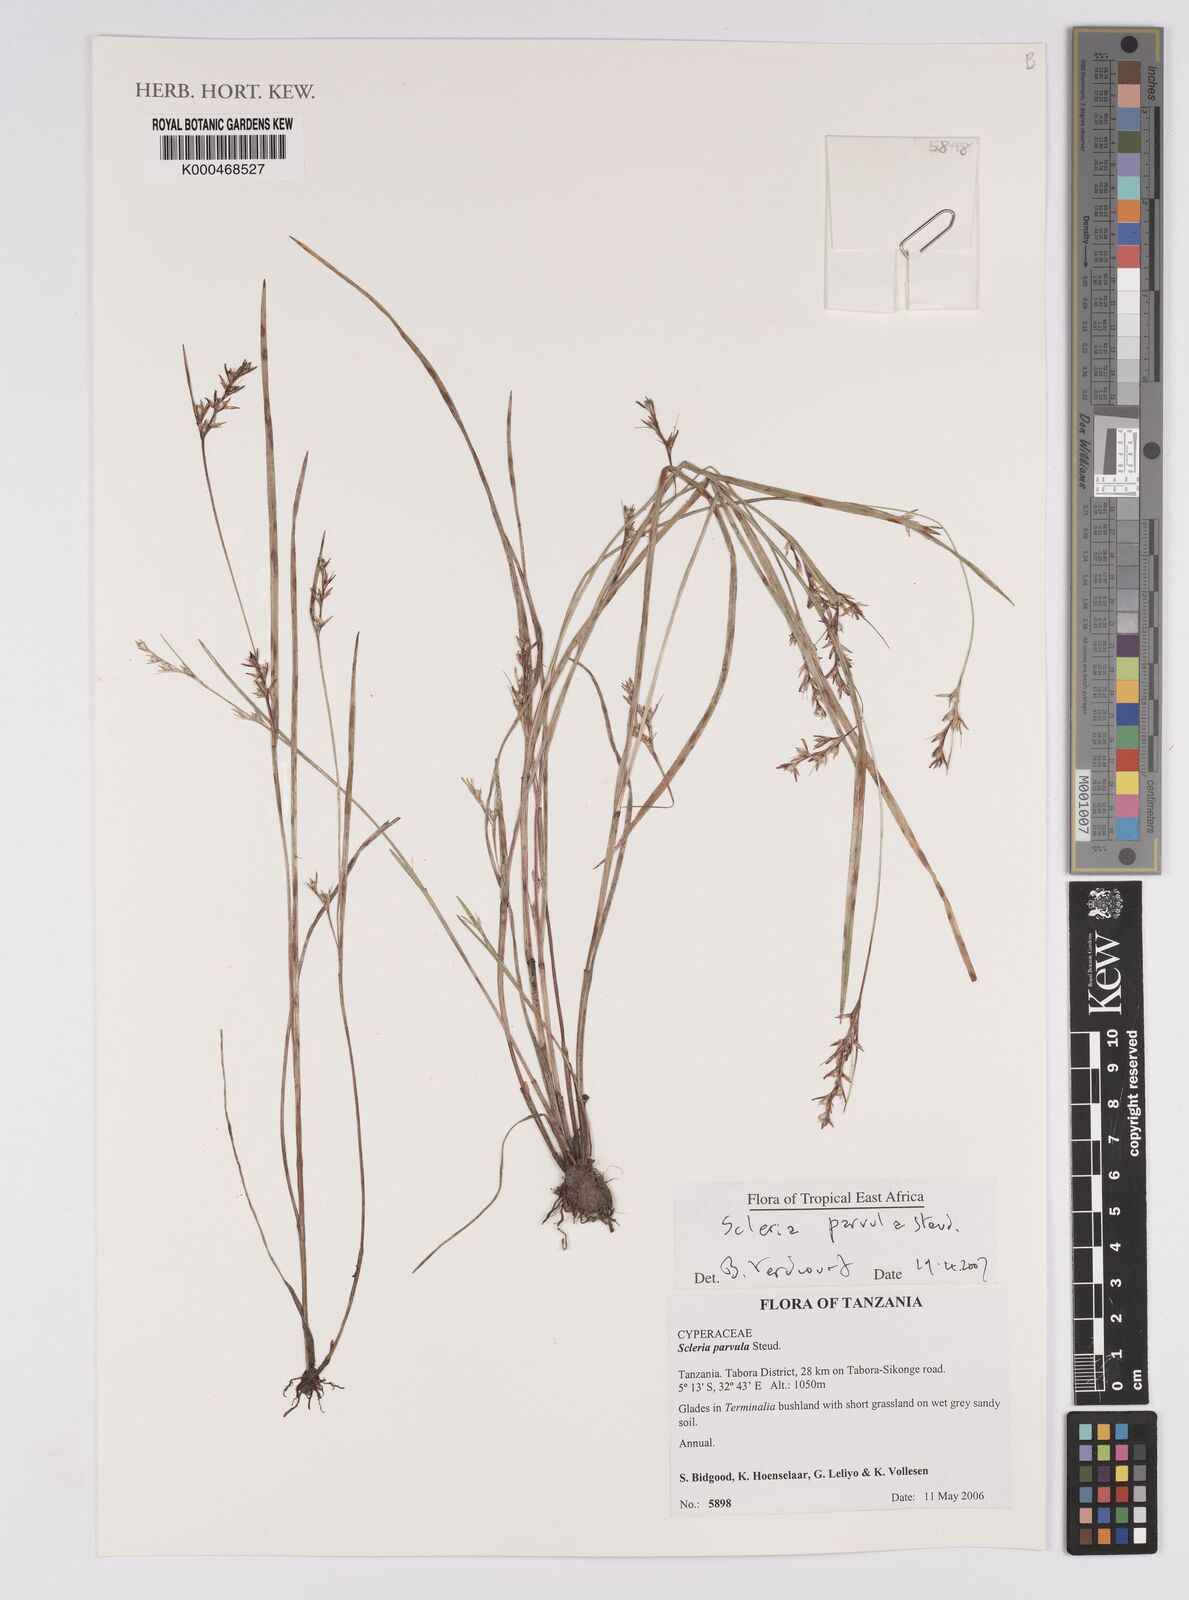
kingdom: Plantae
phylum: Tracheophyta
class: Liliopsida
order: Poales
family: Cyperaceae
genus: Scleria
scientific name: Scleria parvula
